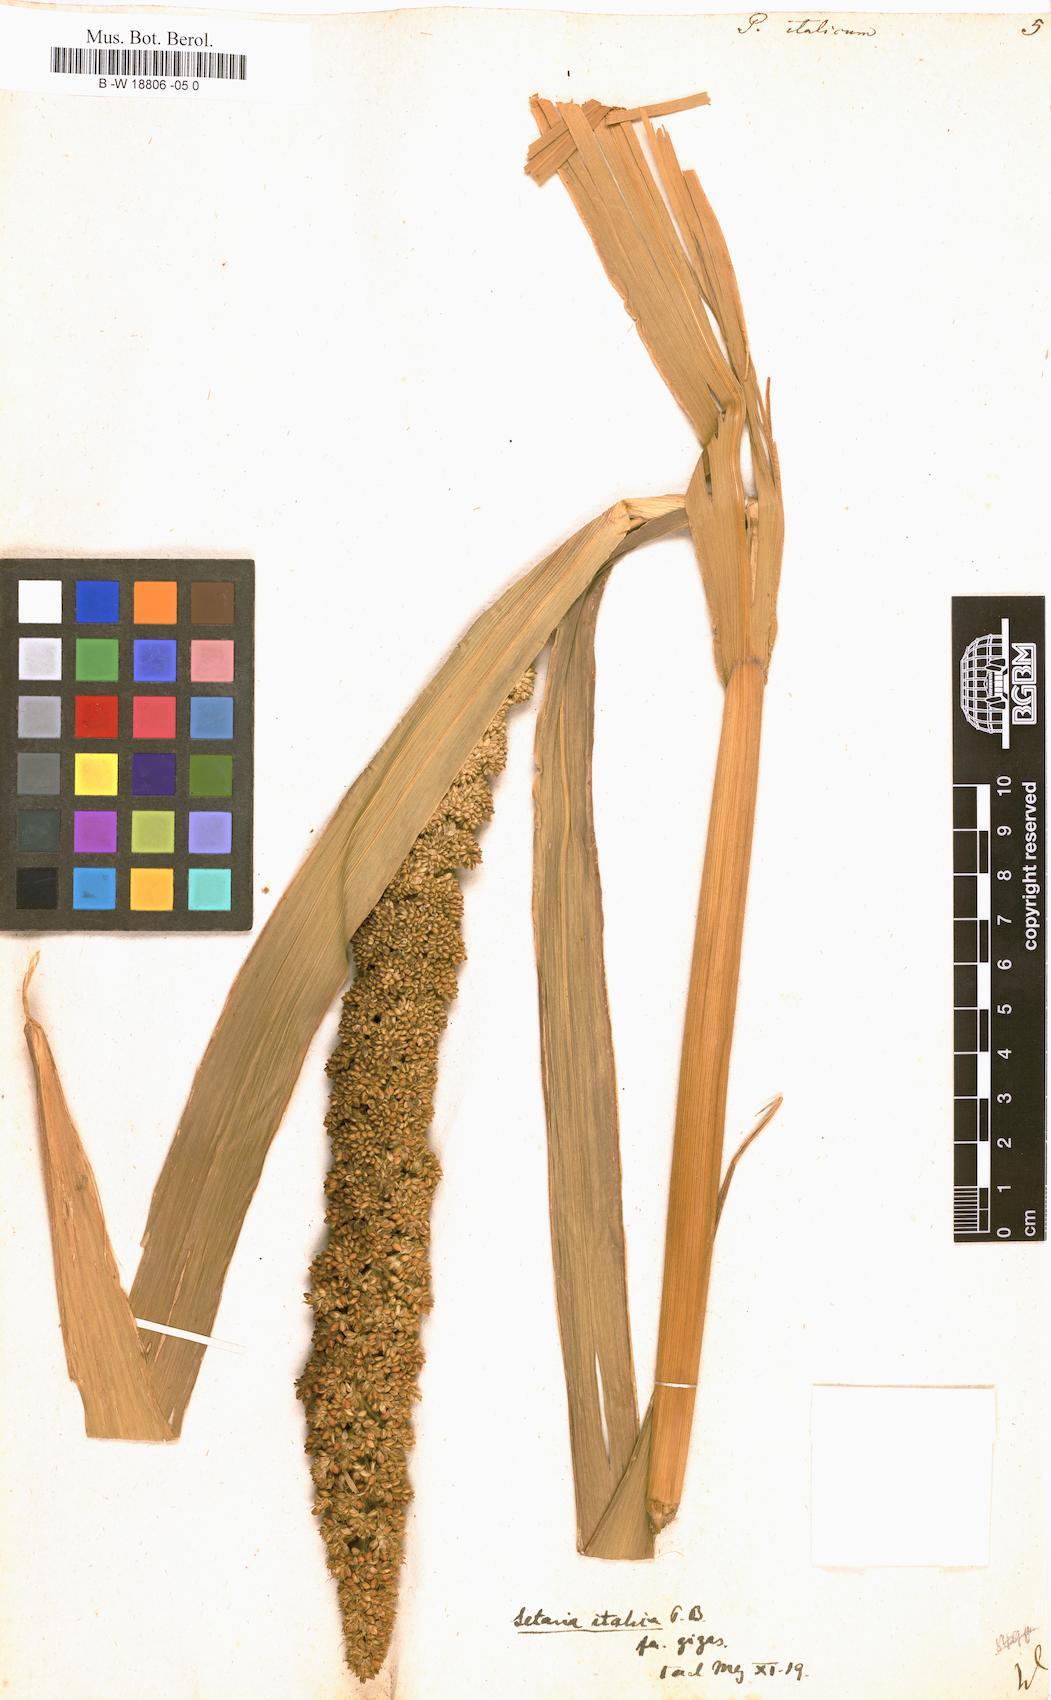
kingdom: Plantae
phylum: Tracheophyta
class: Liliopsida
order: Poales
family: Poaceae
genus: Setaria
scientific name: Setaria italica
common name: Foxtail bristle-grass
